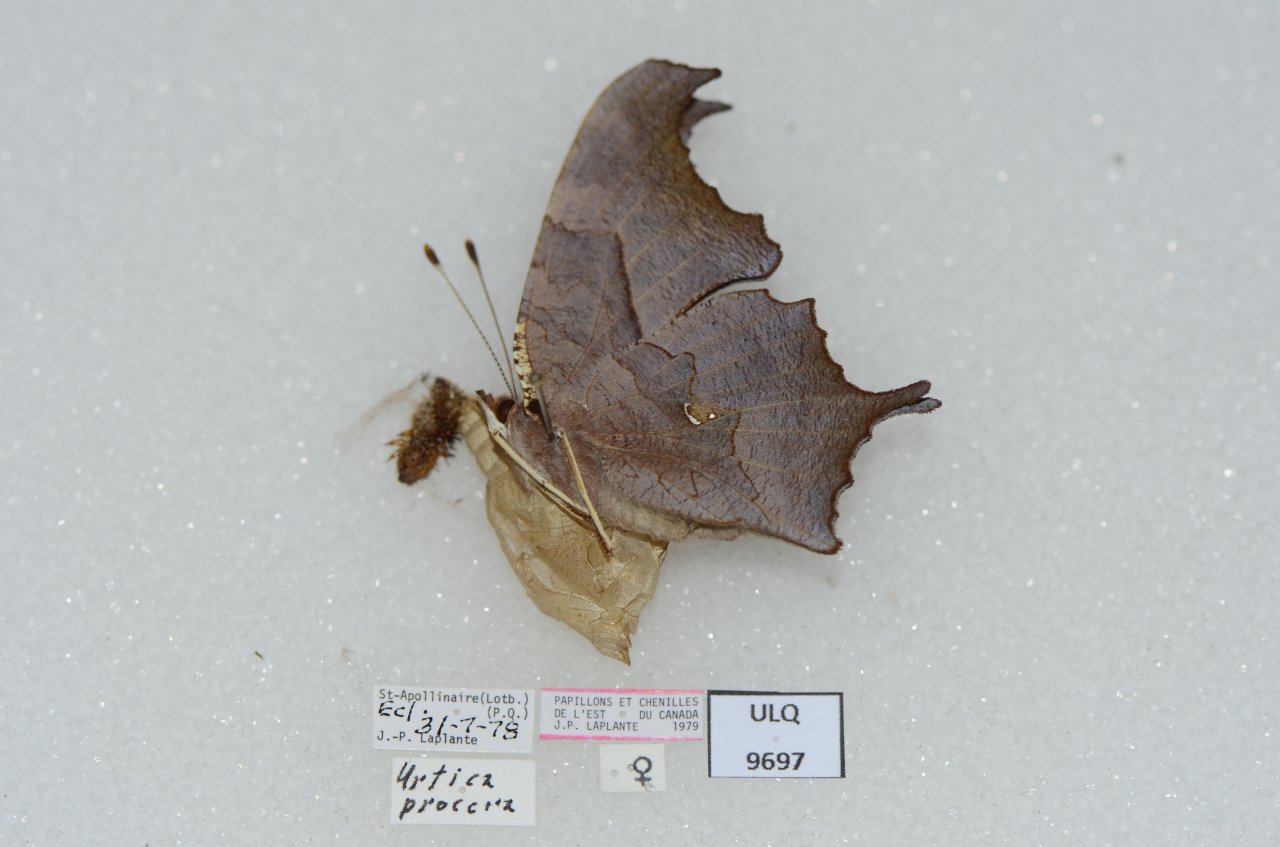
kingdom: Animalia
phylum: Arthropoda
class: Insecta
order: Lepidoptera
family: Nymphalidae
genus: Polygonia
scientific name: Polygonia interrogationis
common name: Question Mark
